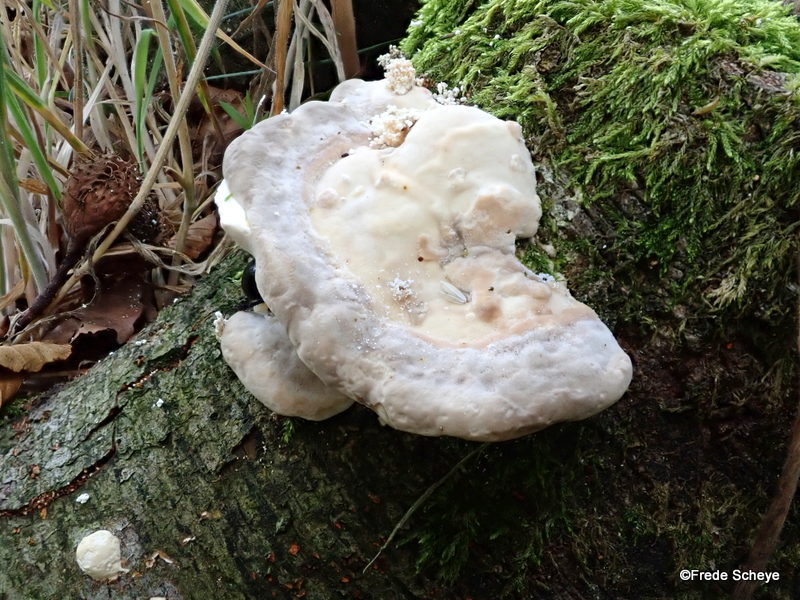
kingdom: Fungi
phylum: Basidiomycota
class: Agaricomycetes
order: Polyporales
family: Polyporaceae
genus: Trametes
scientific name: Trametes gibbosa
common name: puklet læderporesvamp
